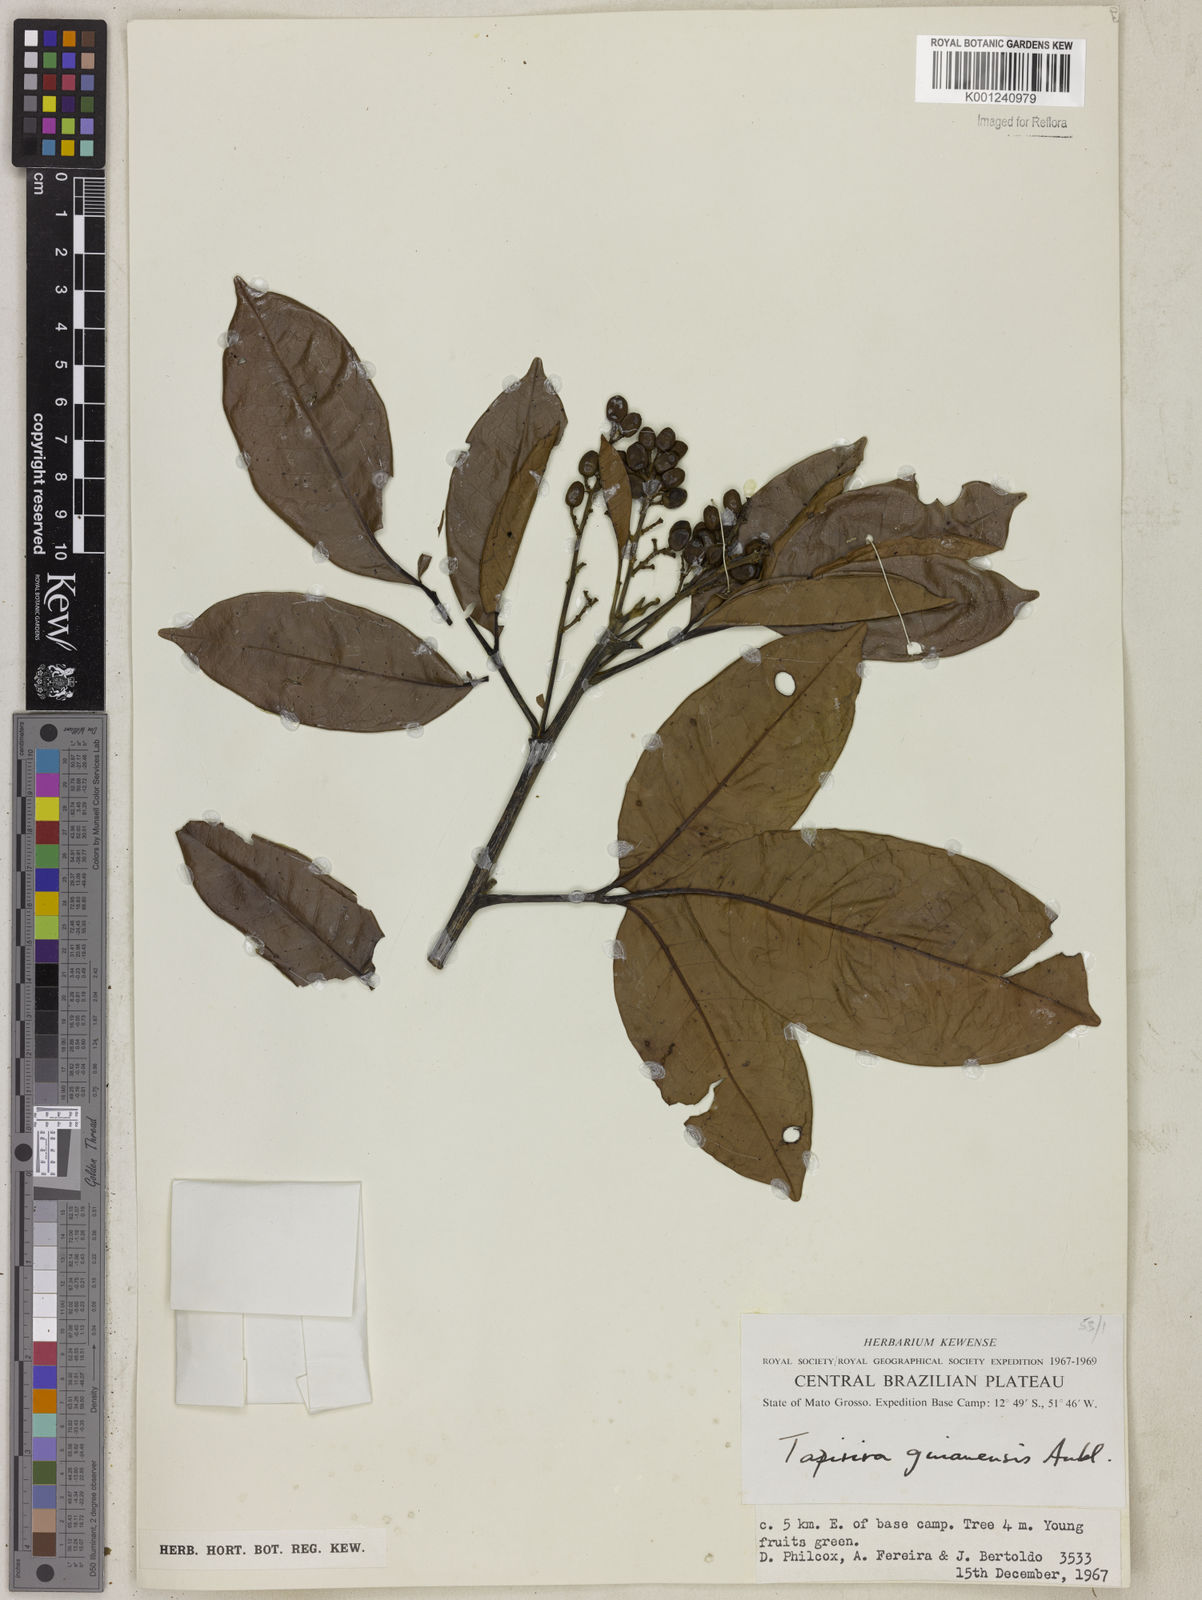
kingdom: Plantae
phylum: Tracheophyta
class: Magnoliopsida
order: Sapindales
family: Anacardiaceae
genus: Tapirira
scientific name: Tapirira guianensis
